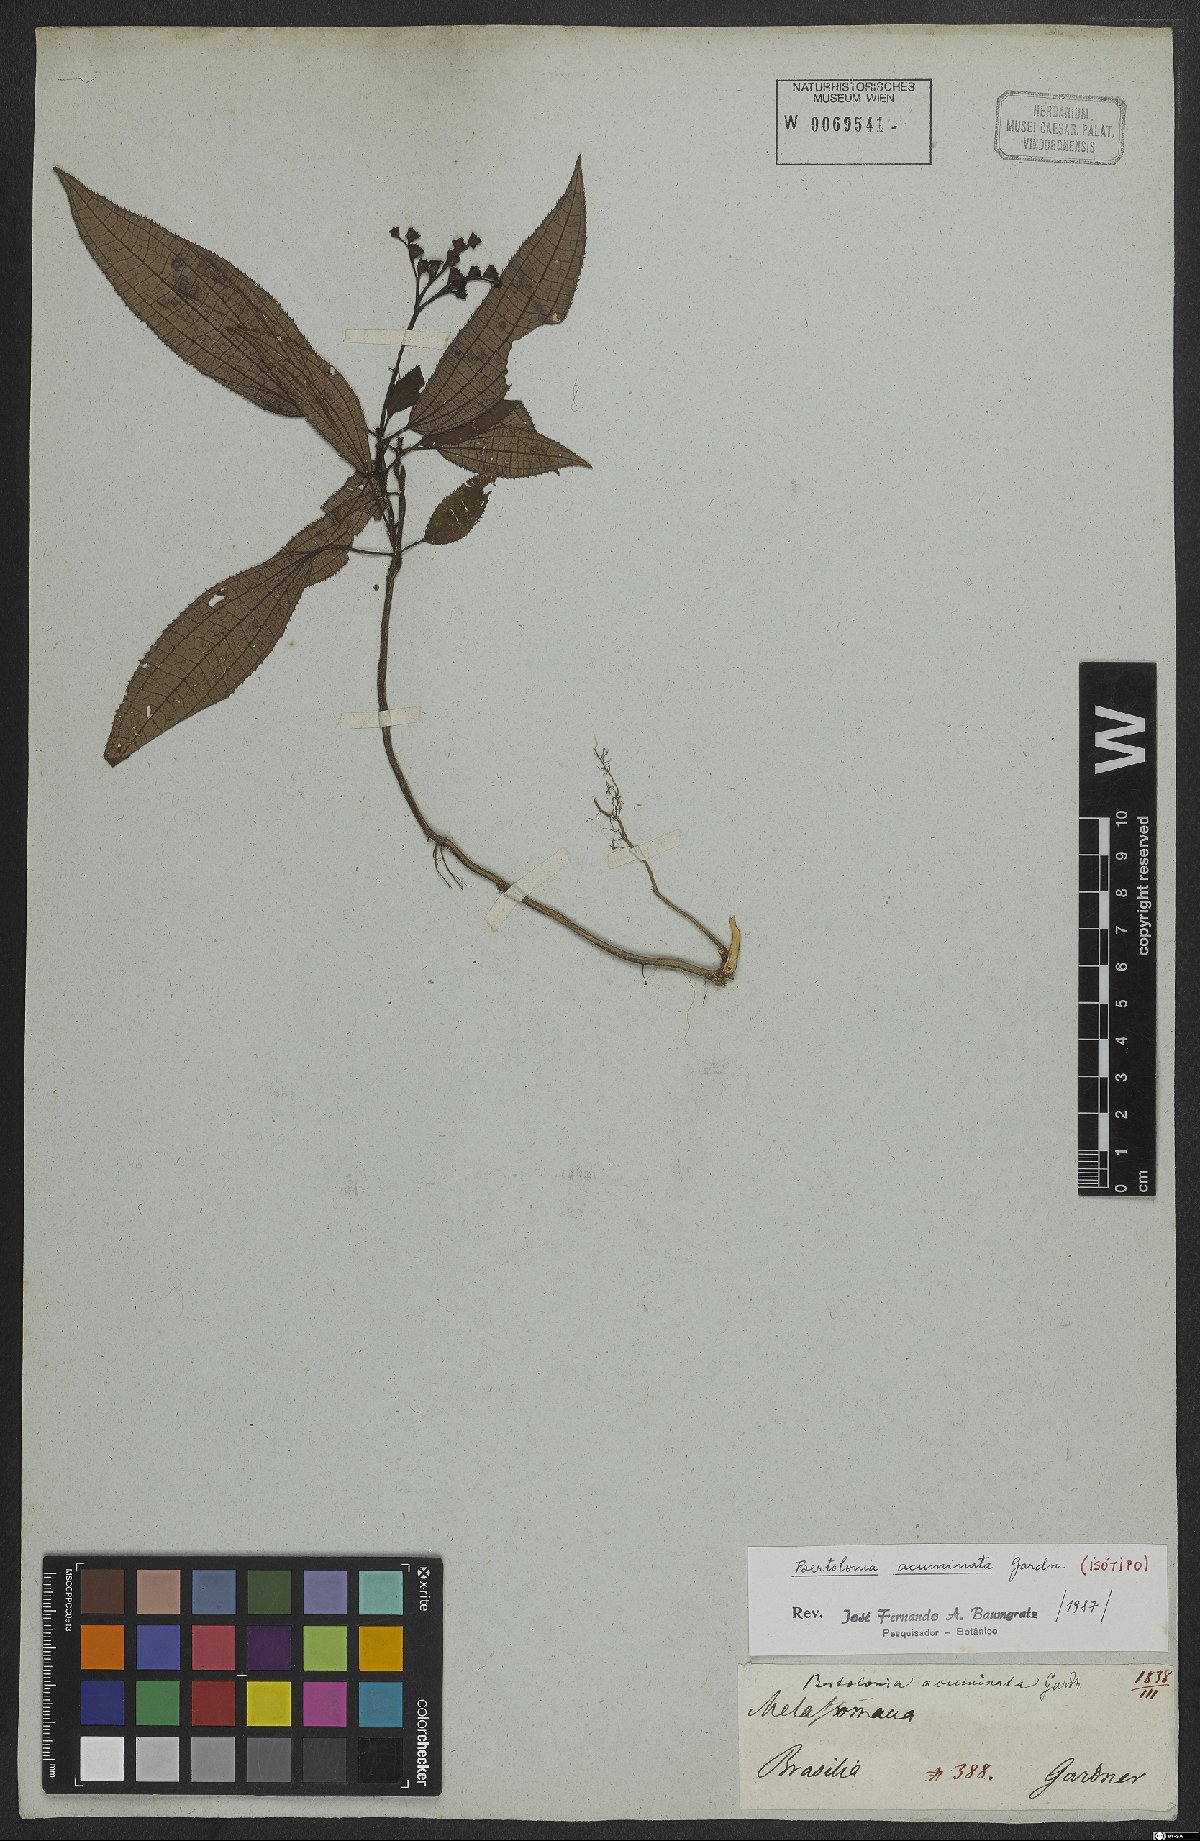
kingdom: Plantae
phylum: Tracheophyta
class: Magnoliopsida
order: Myrtales
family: Melastomataceae
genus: Bertolonia
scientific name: Bertolonia acuminata
